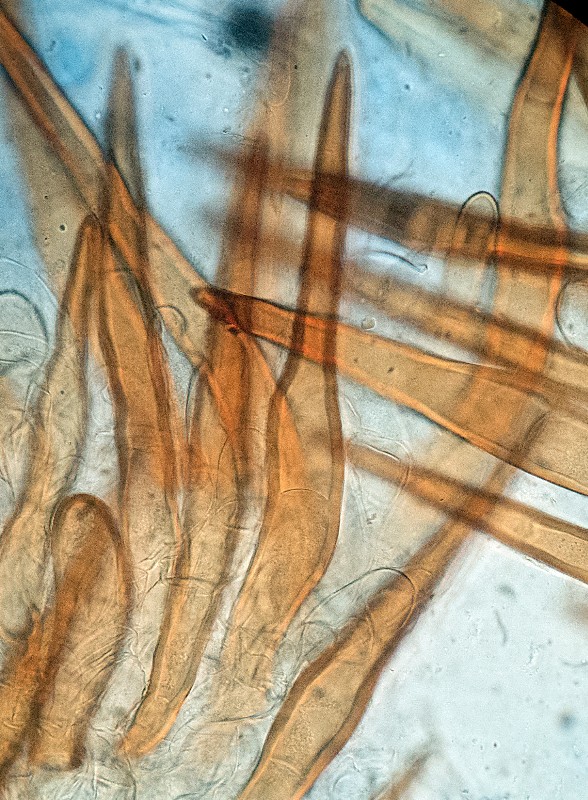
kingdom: Fungi
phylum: Ascomycota
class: Pezizomycetes
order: Pezizales
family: Pyronemataceae
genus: Scutellinia
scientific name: Scutellinia barlae
